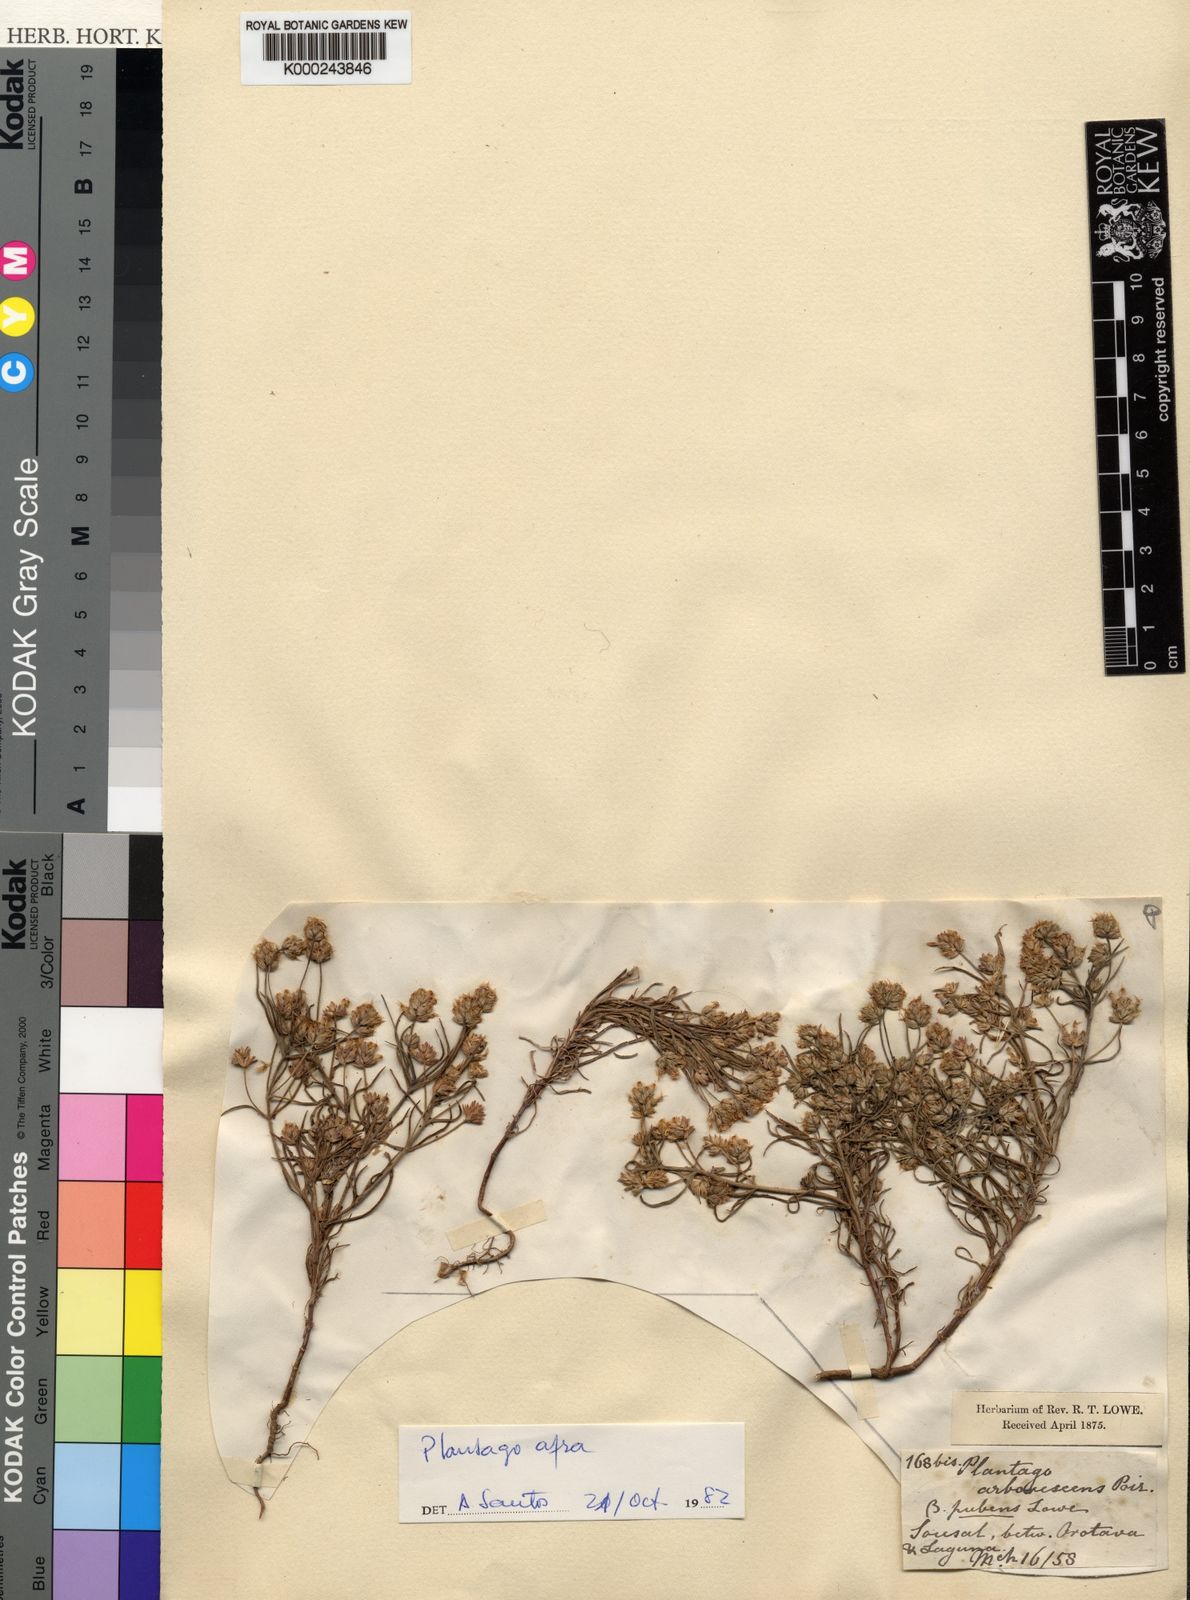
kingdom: Plantae
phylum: Tracheophyta
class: Magnoliopsida
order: Lamiales
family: Plantaginaceae
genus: Plantago
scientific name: Plantago arborescens
